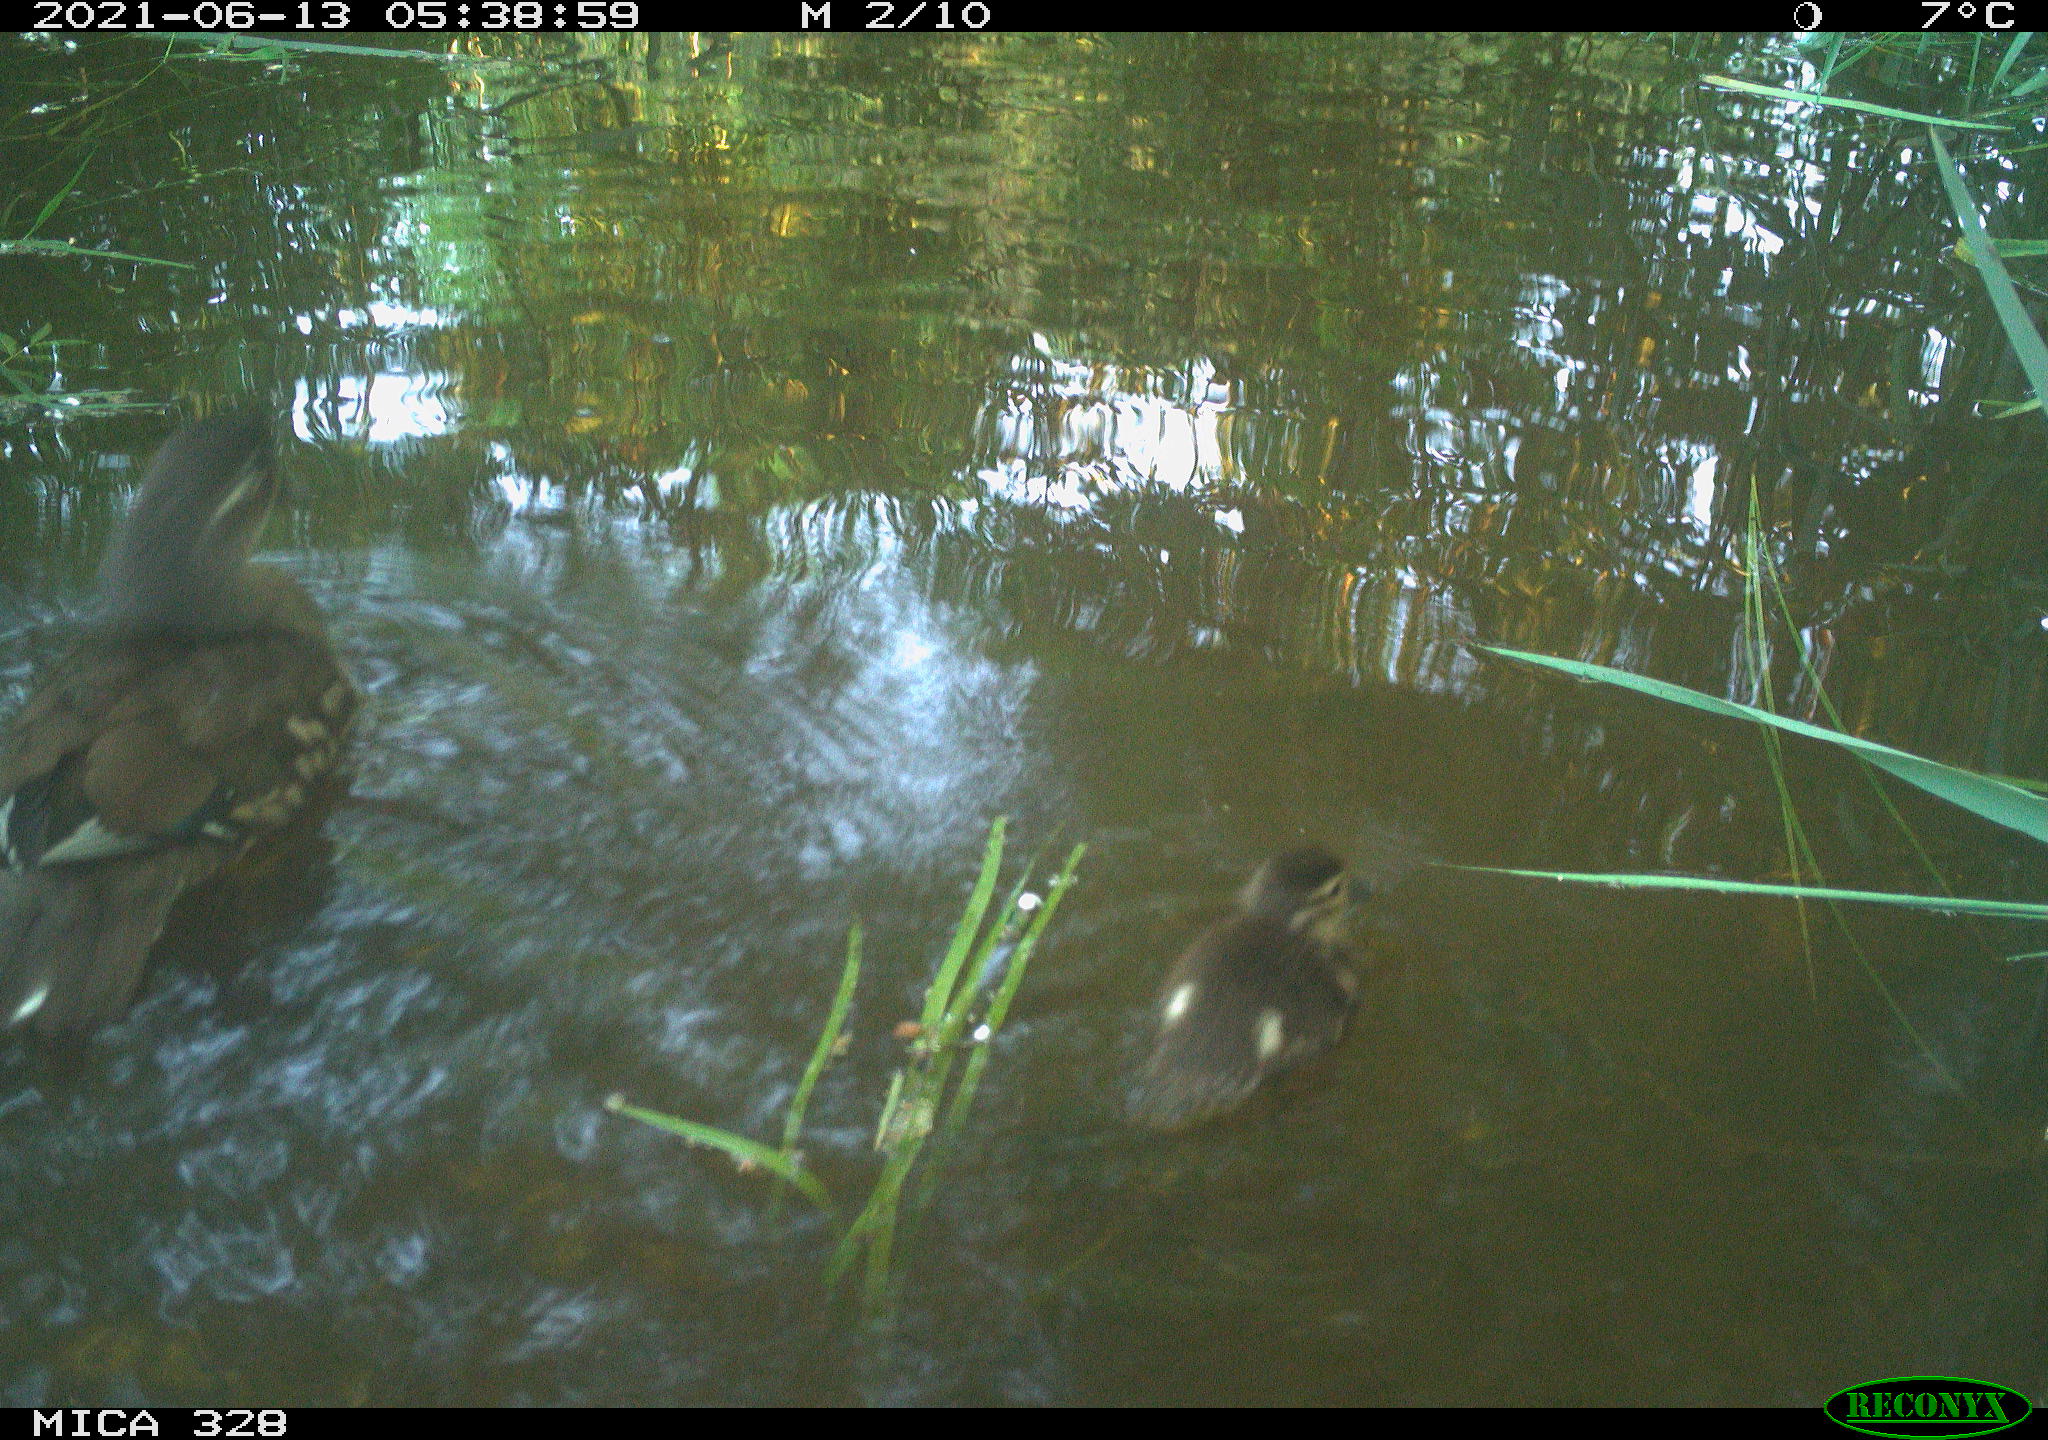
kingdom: Animalia
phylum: Chordata
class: Aves
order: Anseriformes
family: Anatidae
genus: Aix
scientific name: Aix galericulata
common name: Mandarin duck
